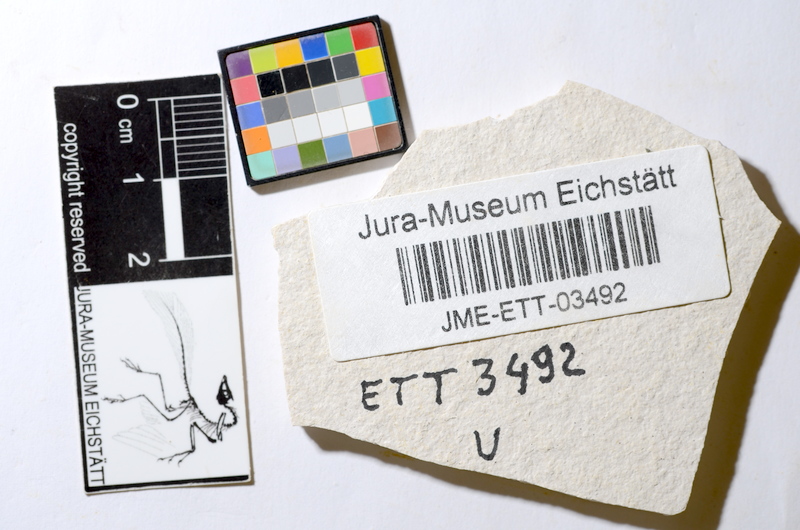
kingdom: Animalia
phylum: Chordata
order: Salmoniformes
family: Orthogonikleithridae
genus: Orthogonikleithrus
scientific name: Orthogonikleithrus hoelli
